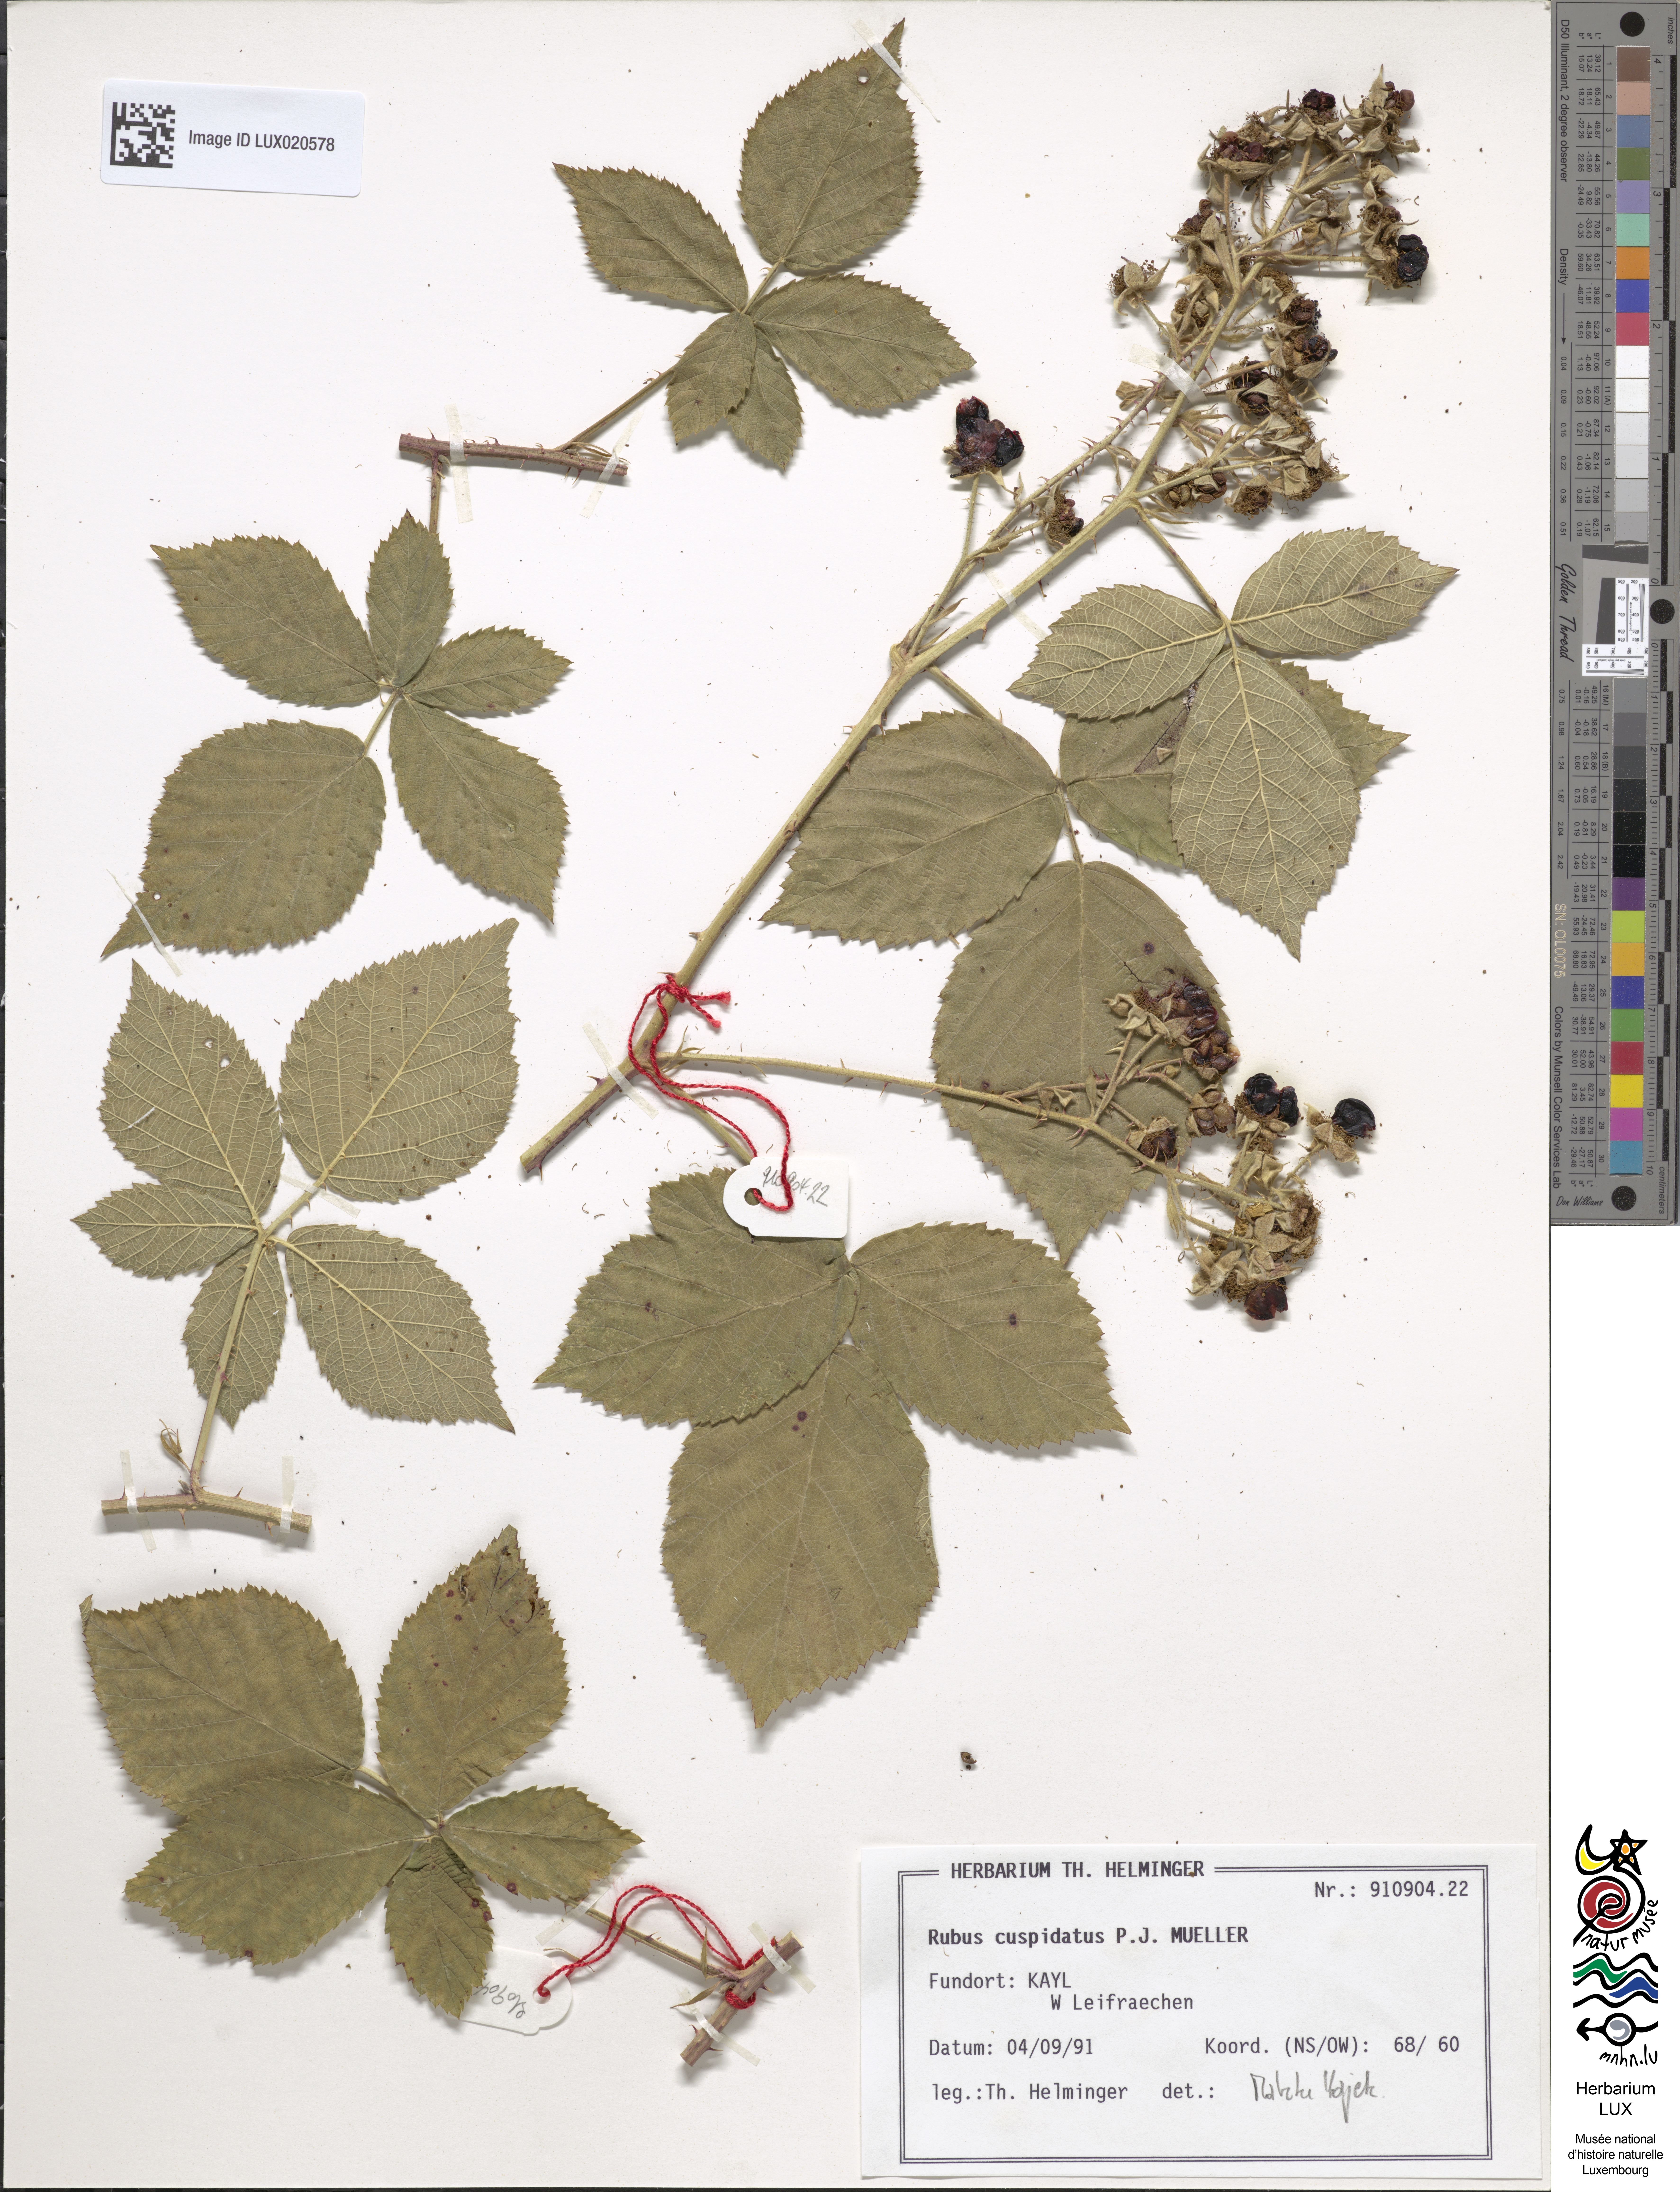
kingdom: Plantae
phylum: Tracheophyta
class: Magnoliopsida
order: Rosales
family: Rosaceae
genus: Rubus
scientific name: Rubus cuspidatus
